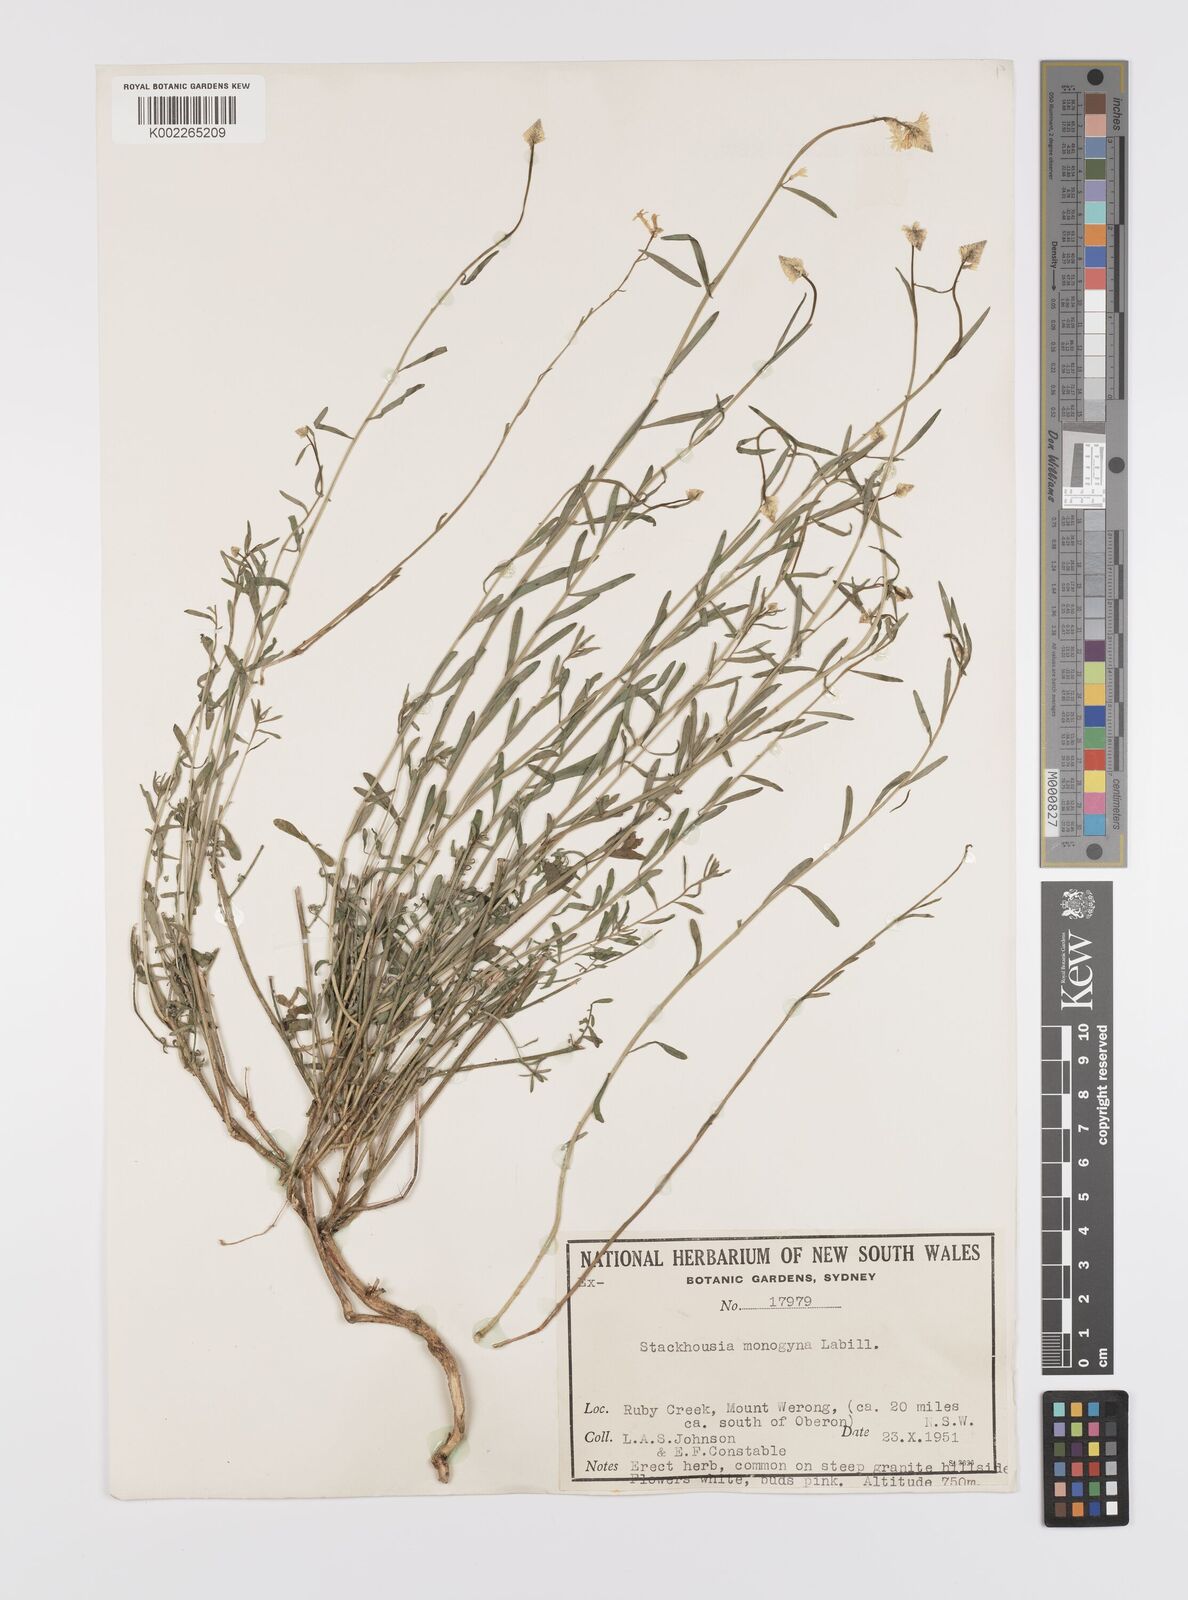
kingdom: Plantae
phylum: Tracheophyta
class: Magnoliopsida
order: Celastrales
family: Celastraceae
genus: Stackhousia
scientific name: Stackhousia monogyna
